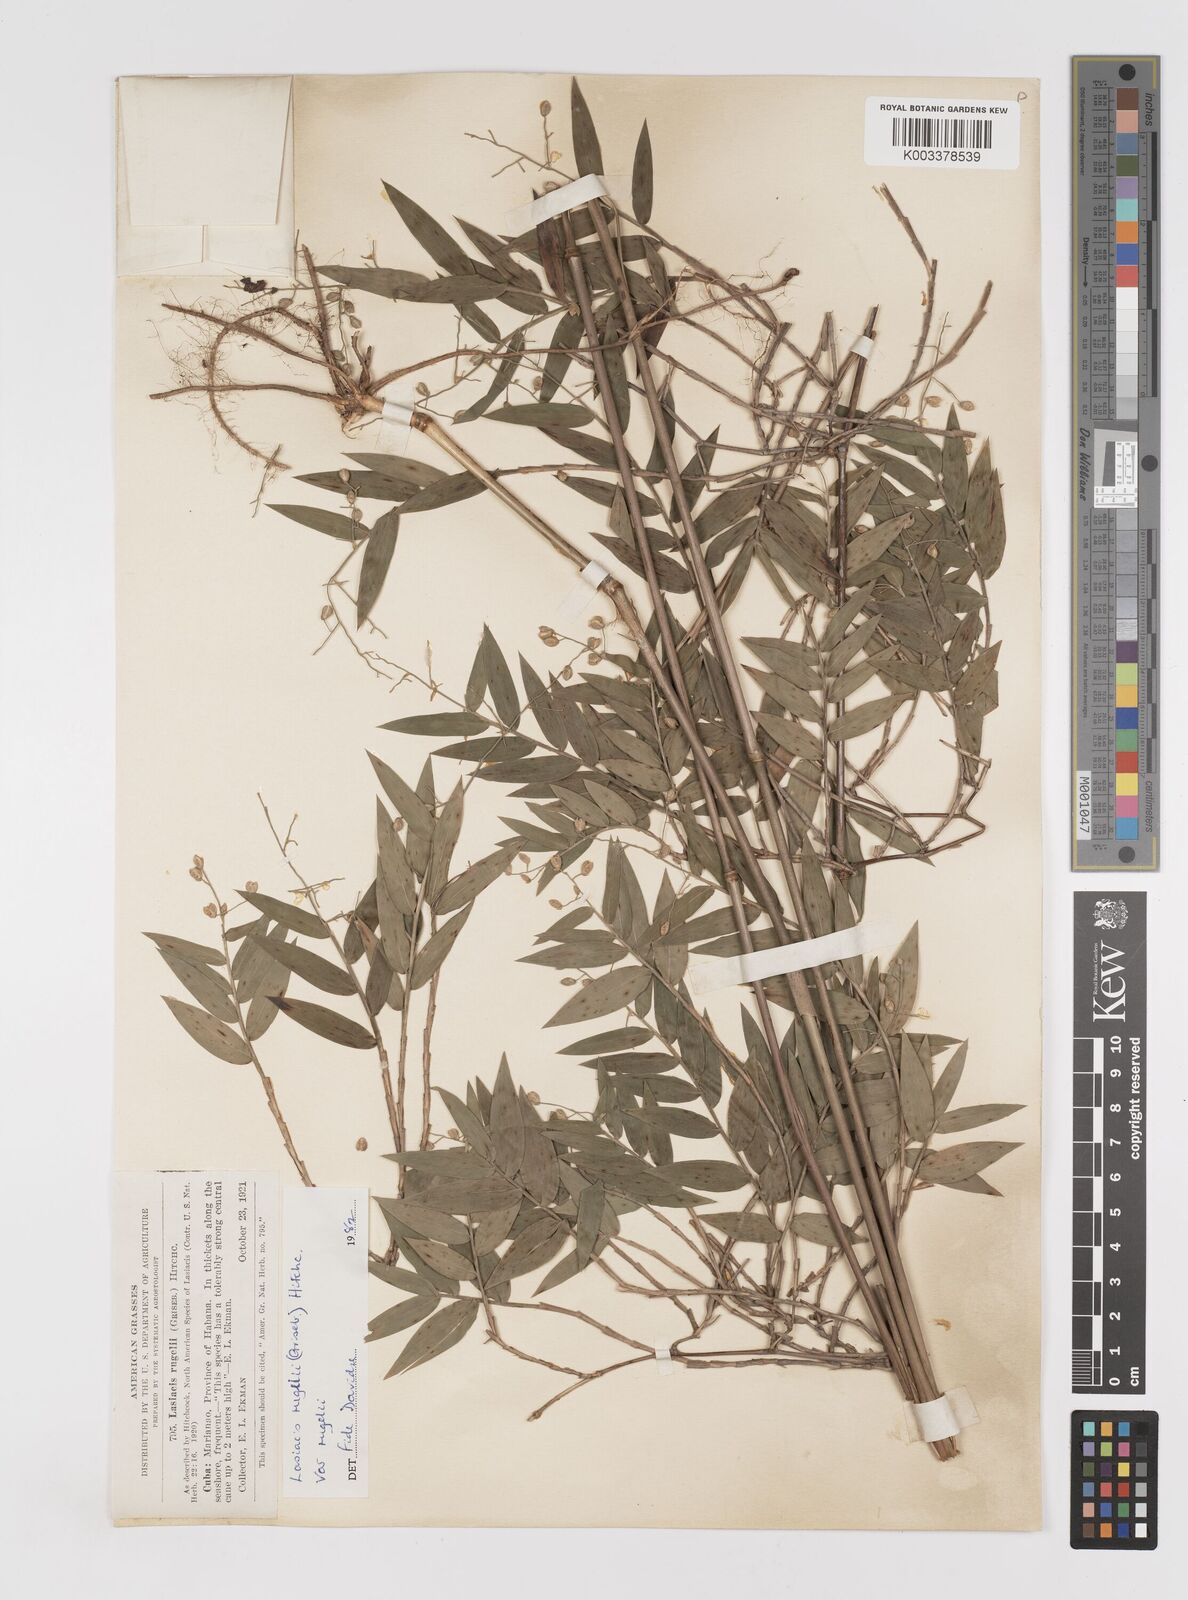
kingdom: Plantae
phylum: Tracheophyta
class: Liliopsida
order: Poales
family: Poaceae
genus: Lasiacis
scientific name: Lasiacis rugelii
